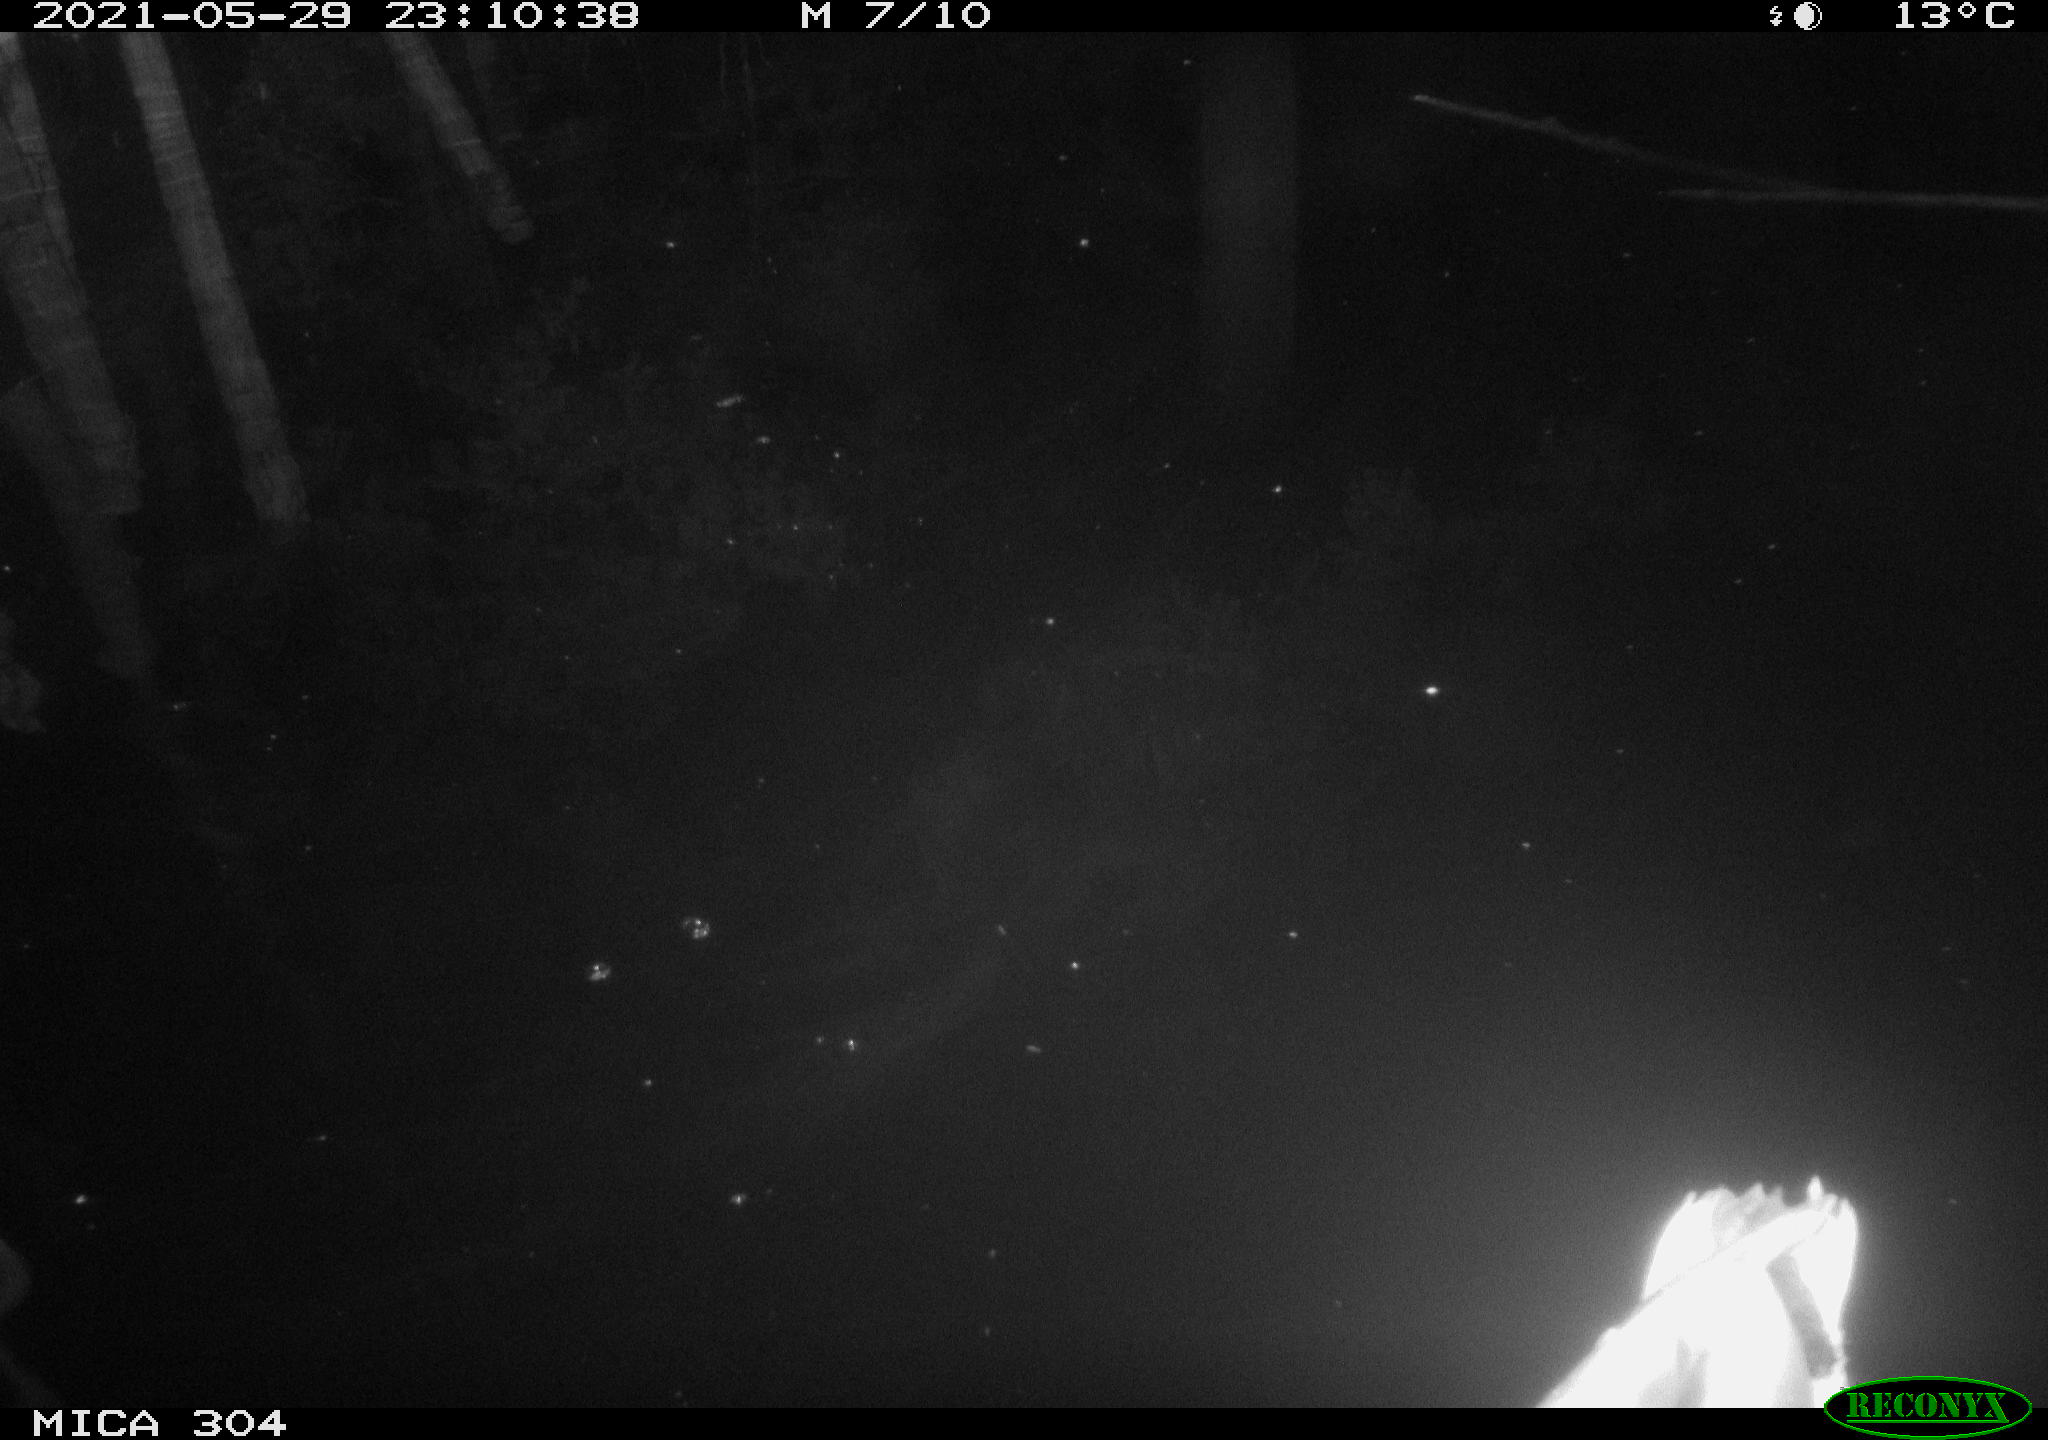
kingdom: Animalia
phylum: Chordata
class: Aves
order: Anseriformes
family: Anatidae
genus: Anas
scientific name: Anas platyrhynchos
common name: Mallard
